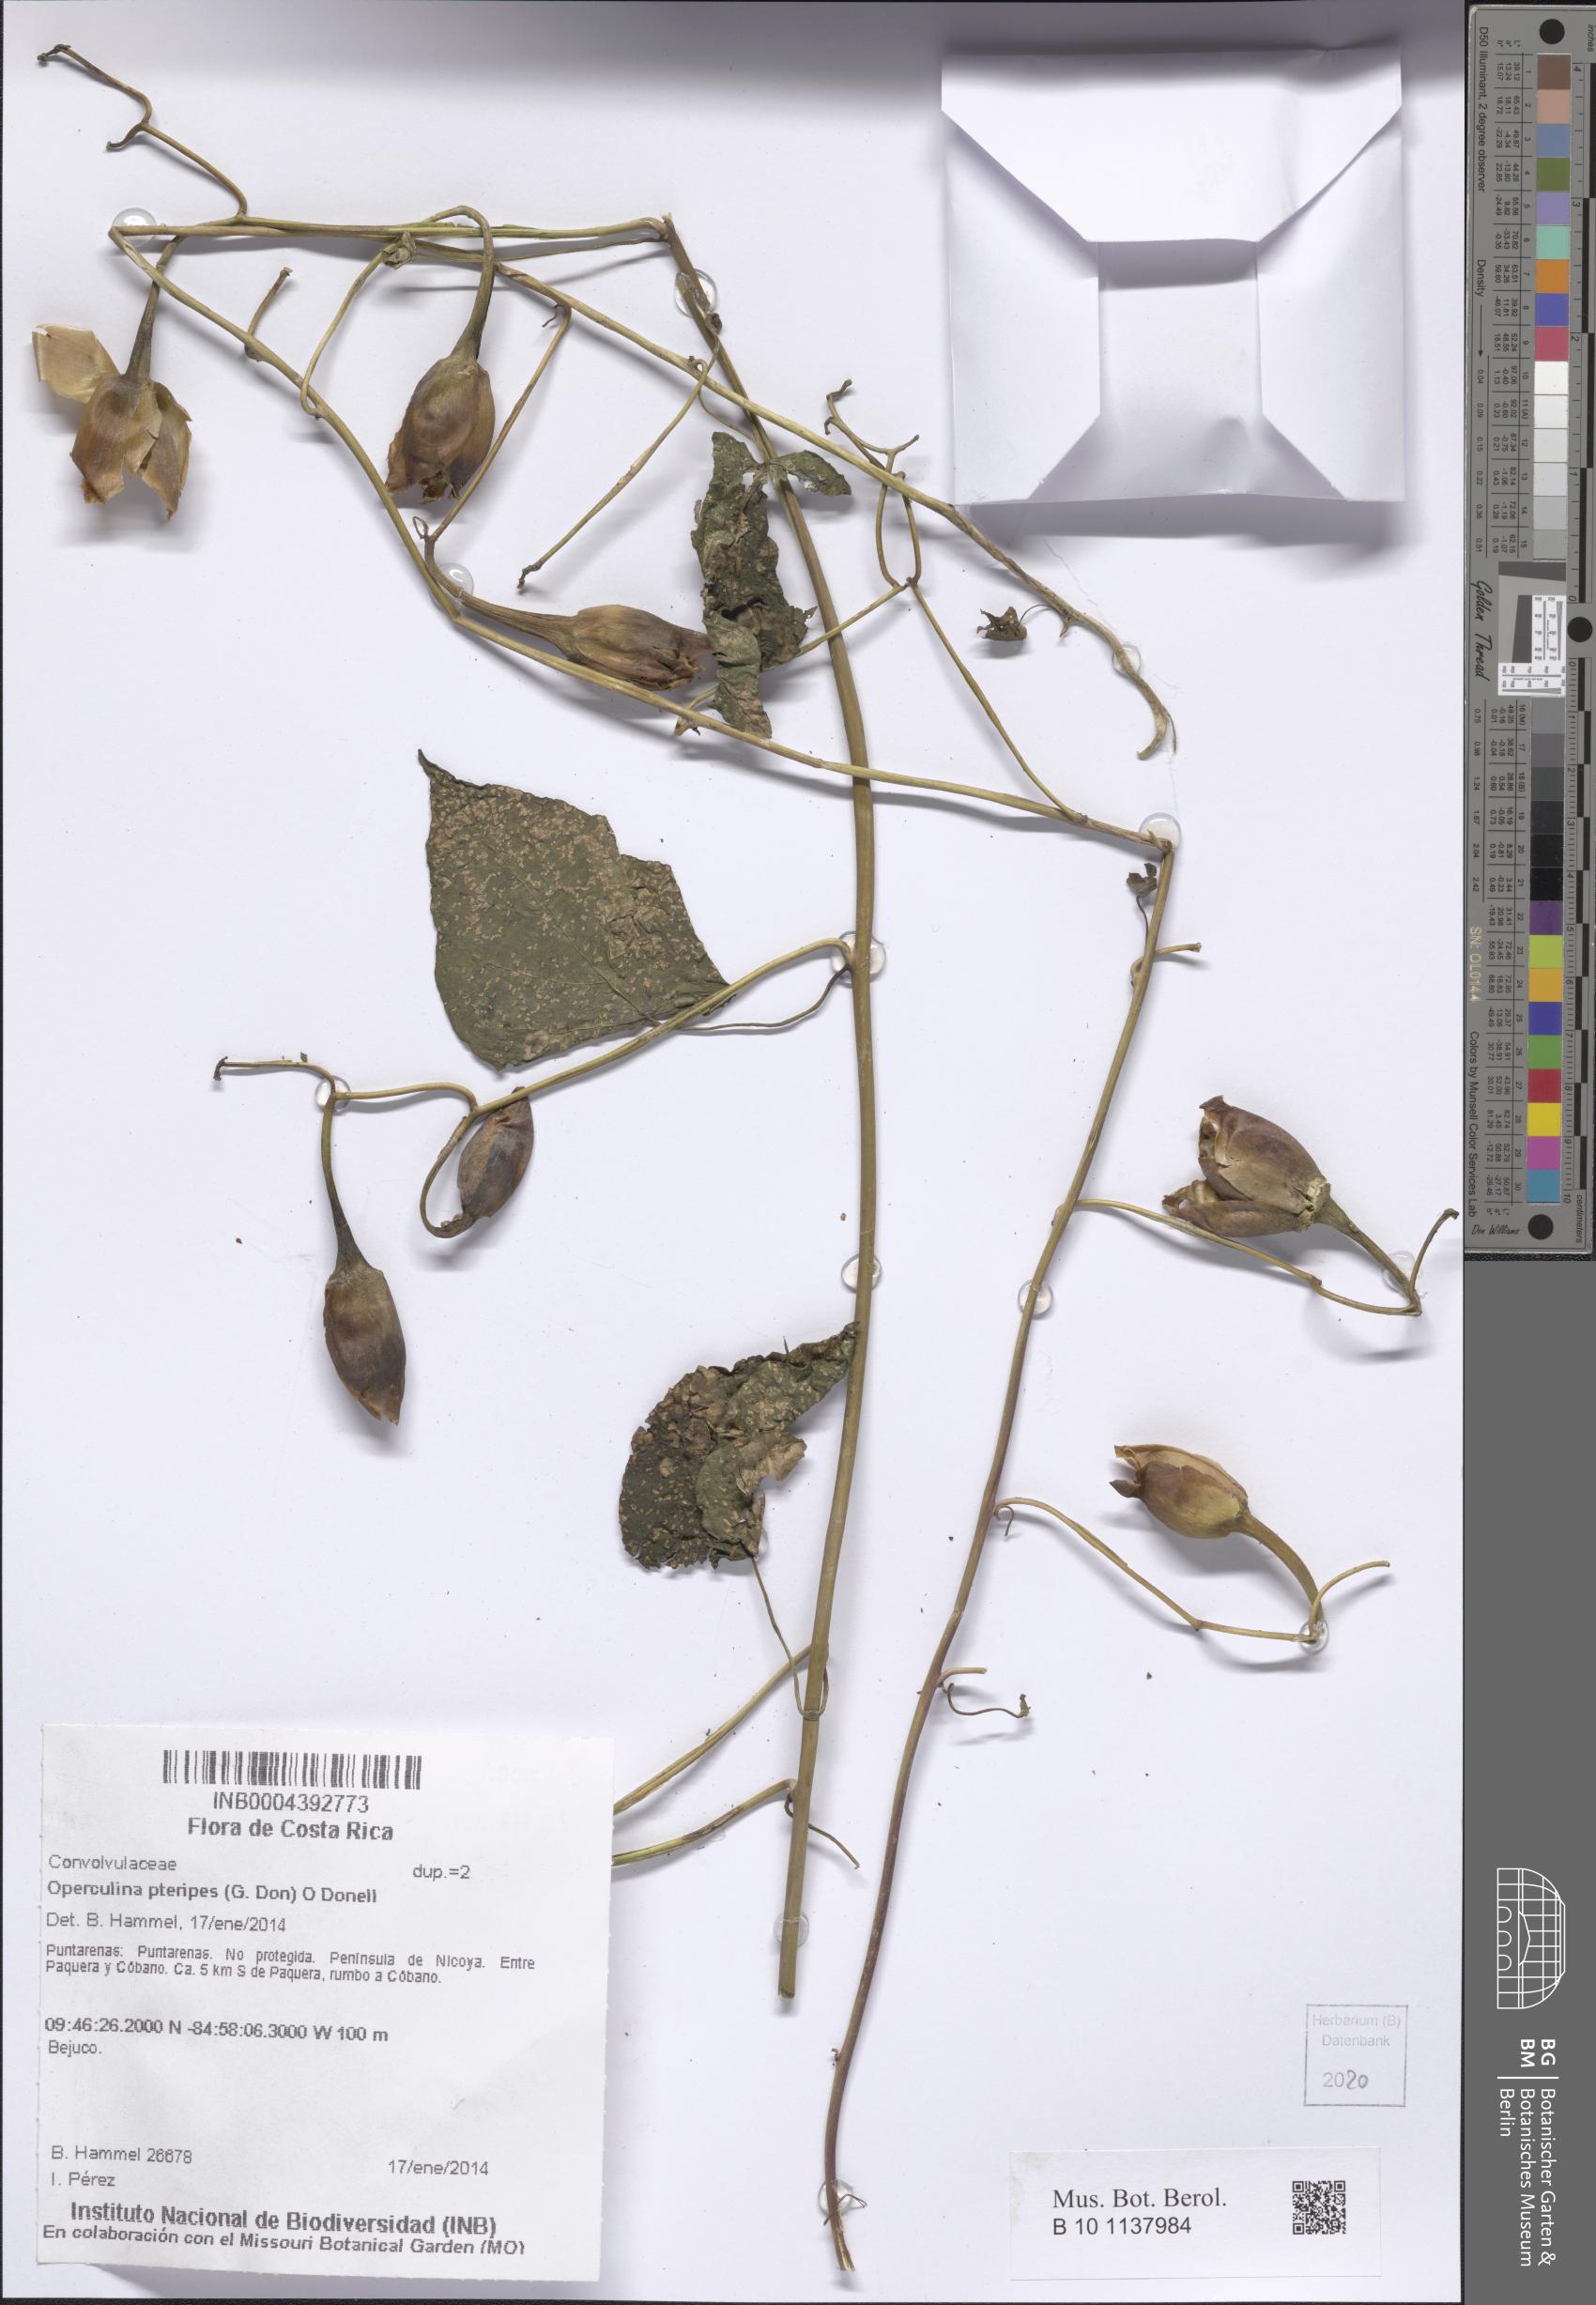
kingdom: Plantae
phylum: Tracheophyta
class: Magnoliopsida
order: Solanales
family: Convolvulaceae
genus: Operculina
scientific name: Operculina pteripes
